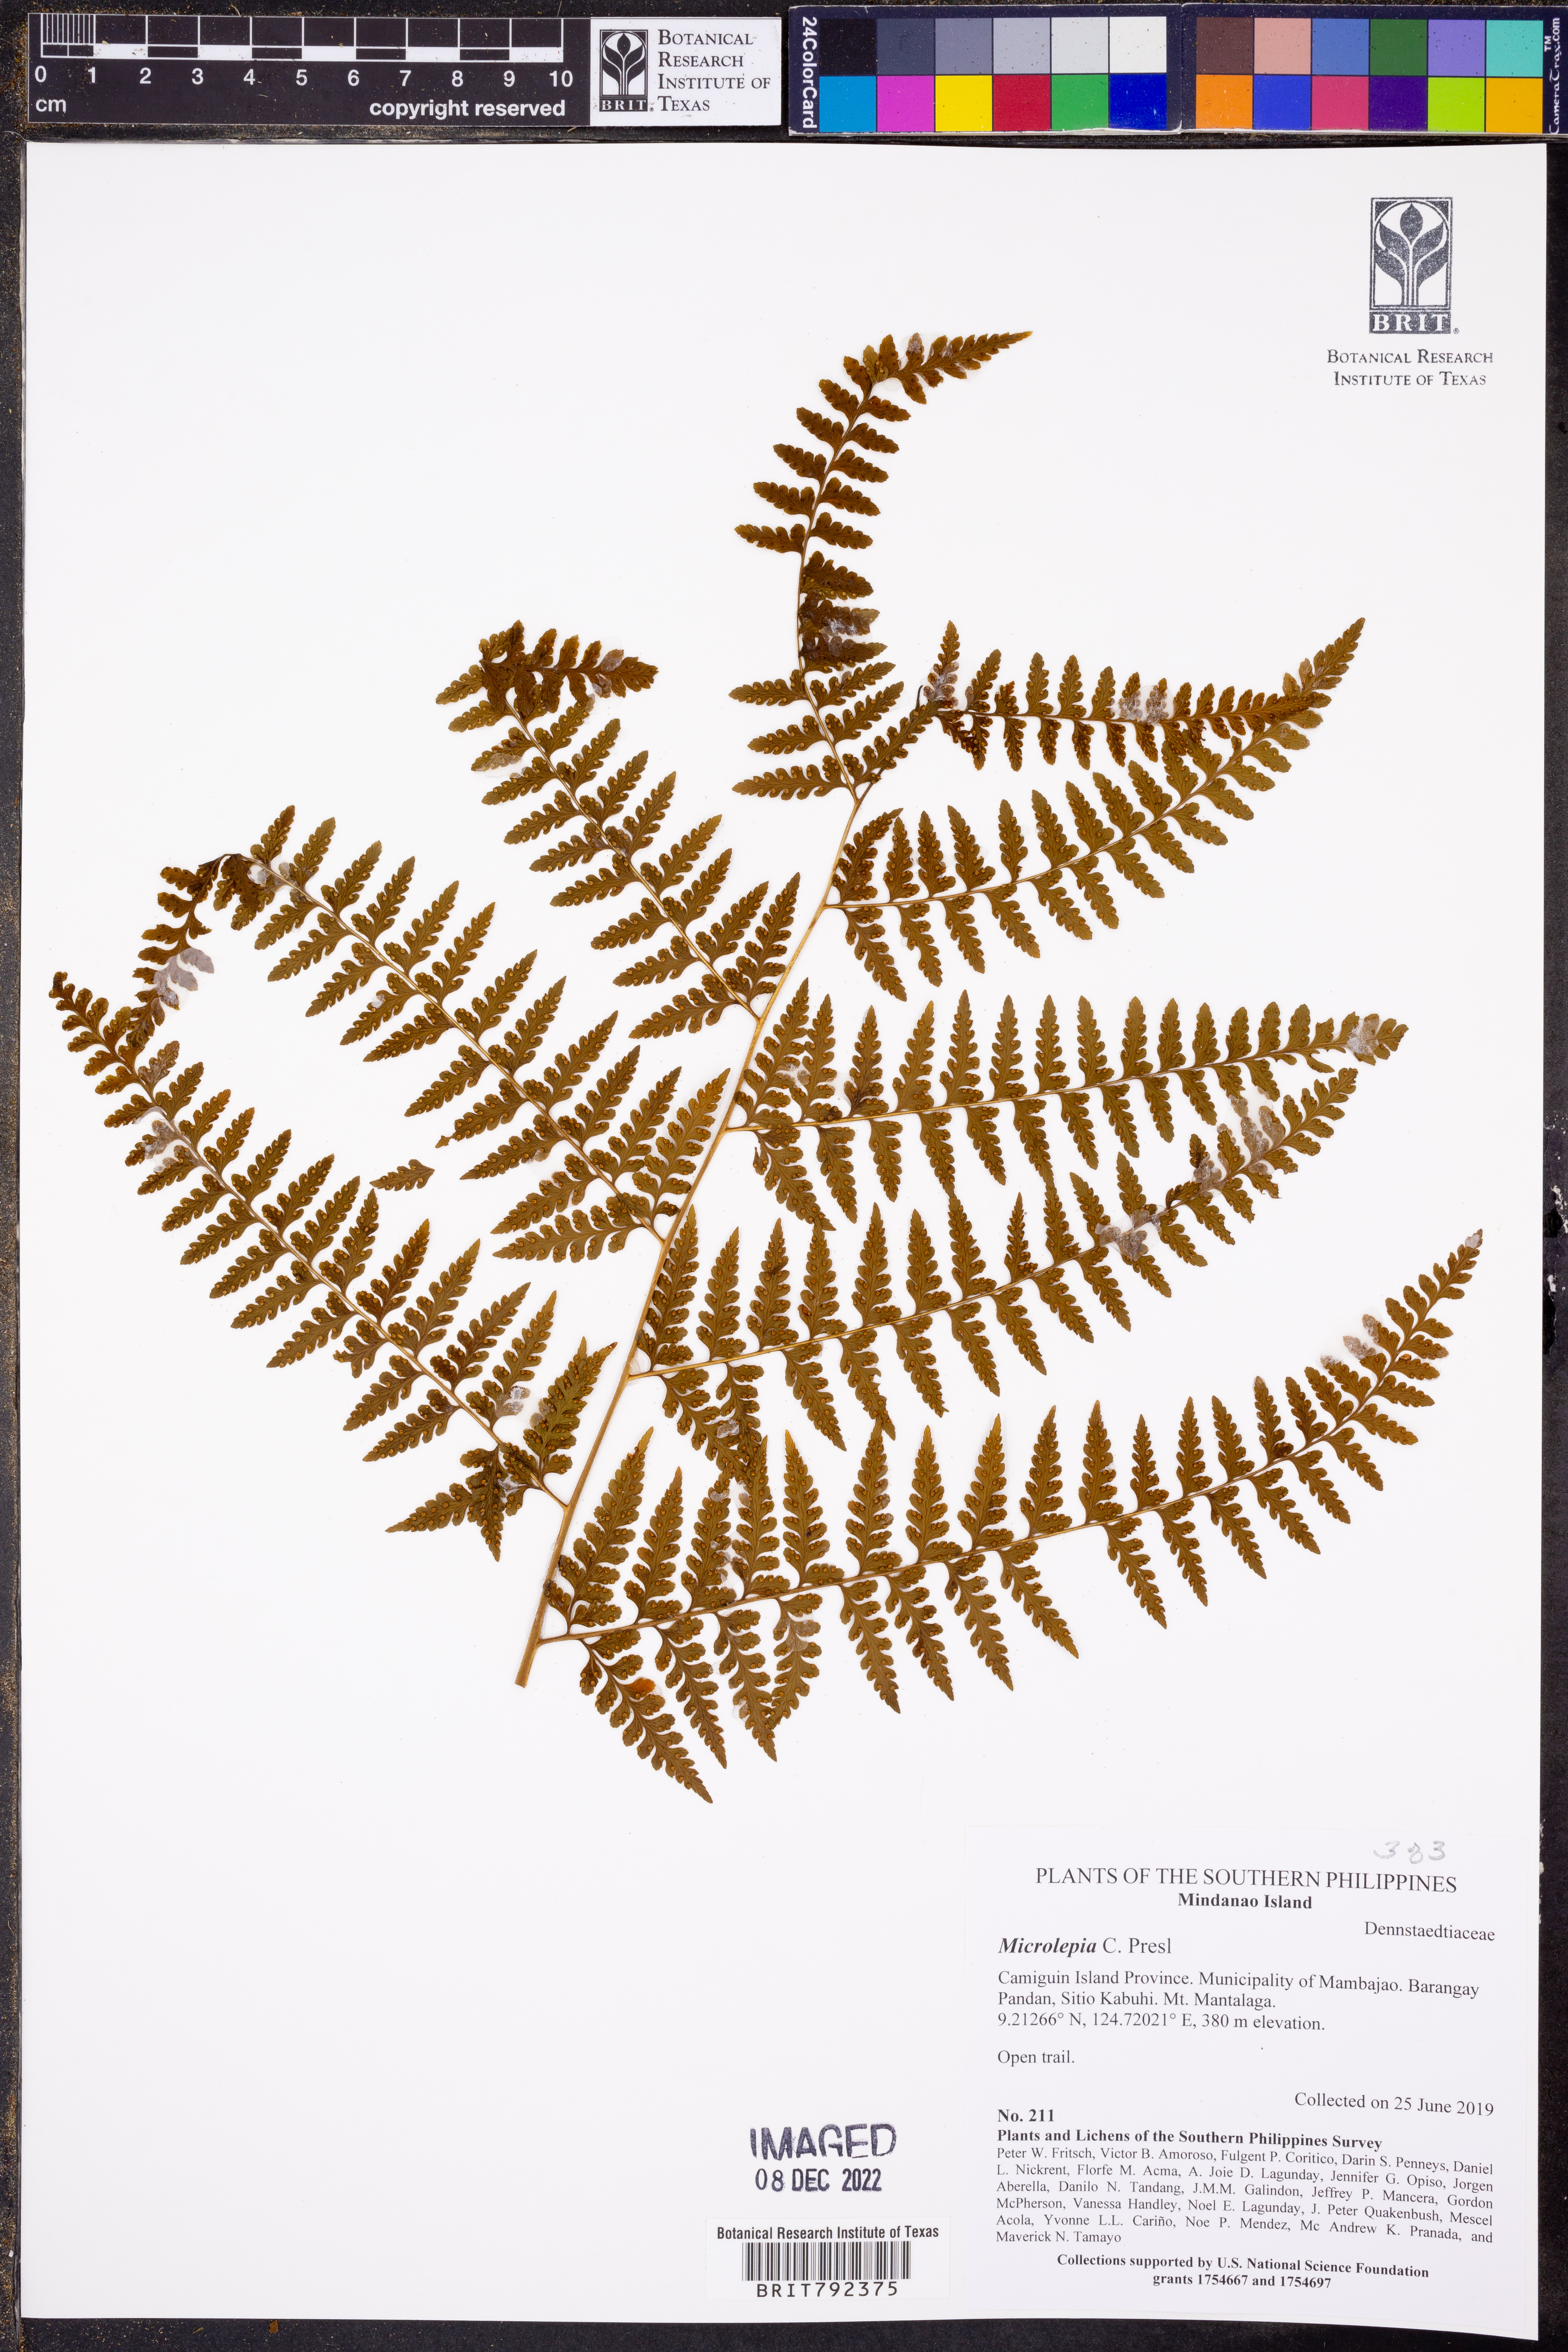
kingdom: Plantae
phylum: Tracheophyta
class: Polypodiopsida
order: Polypodiales
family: Dennstaedtiaceae
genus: Microlepia
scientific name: Microlepia
